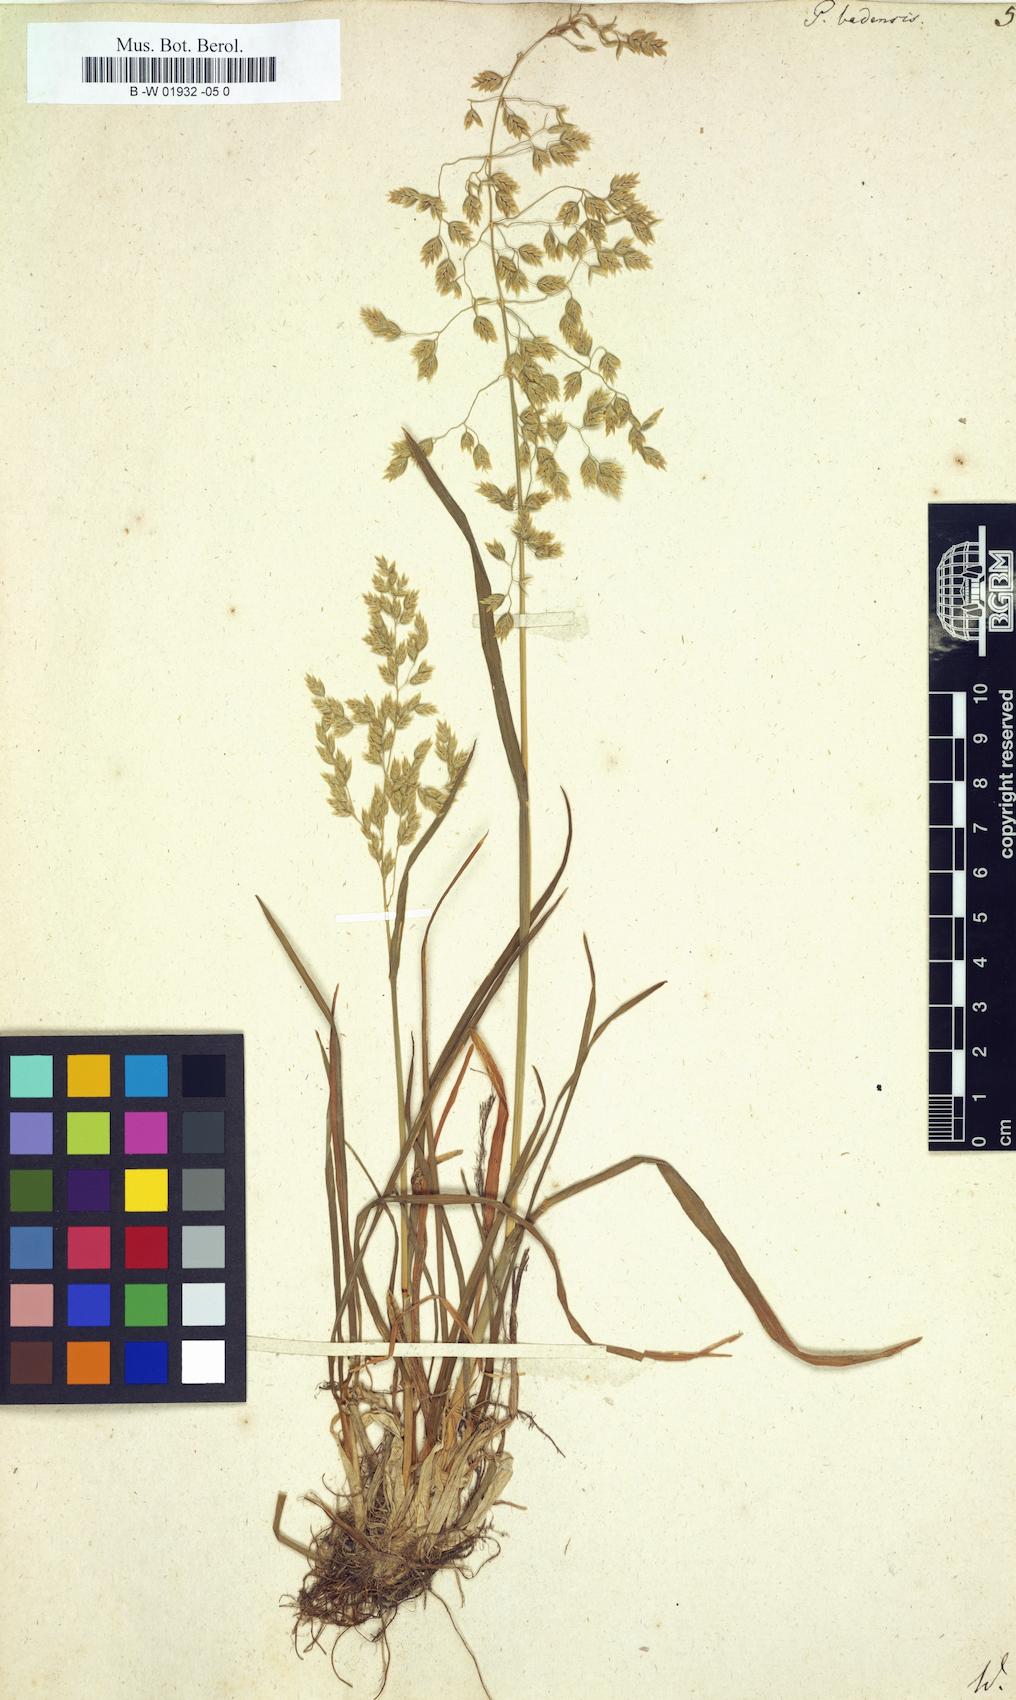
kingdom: Plantae
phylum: Tracheophyta
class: Liliopsida
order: Poales
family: Poaceae
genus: Poa
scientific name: Poa badensis
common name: Baden's bluegrass
